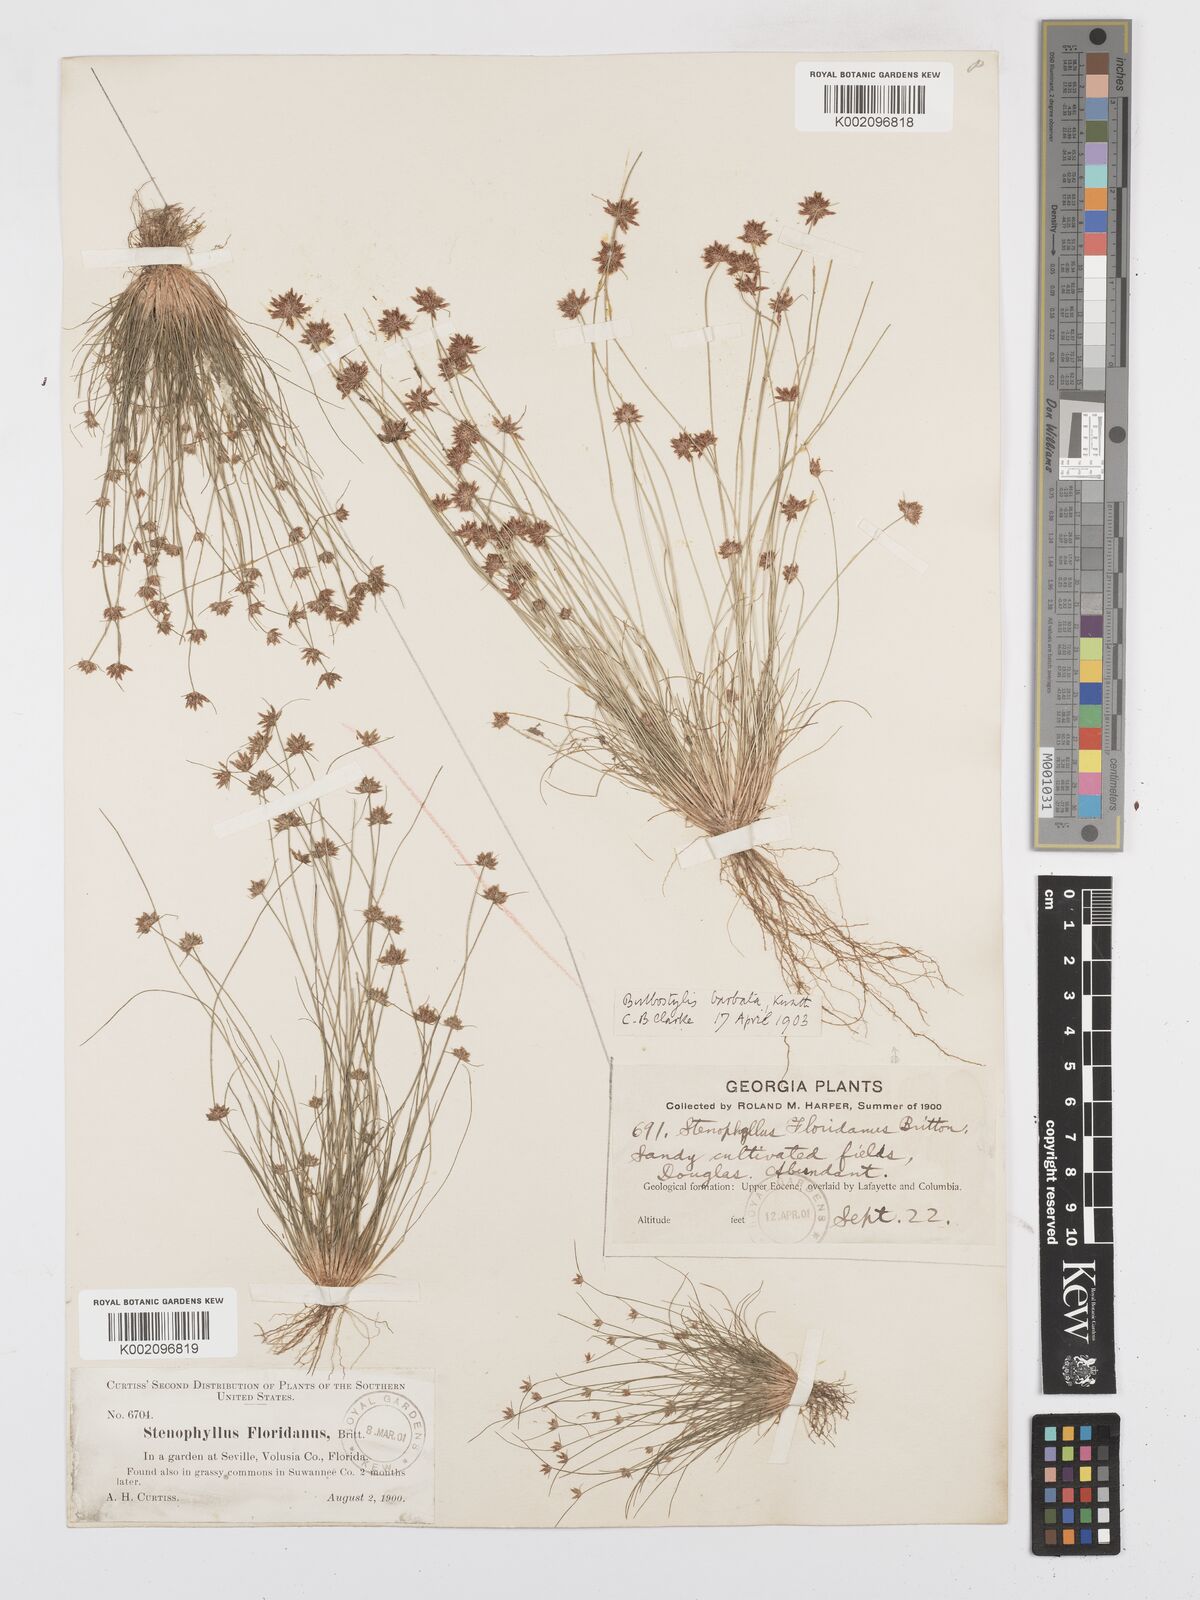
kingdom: Plantae
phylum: Tracheophyta
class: Liliopsida
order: Poales
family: Cyperaceae
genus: Bulbostylis
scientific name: Bulbostylis barbata
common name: Watergrass
